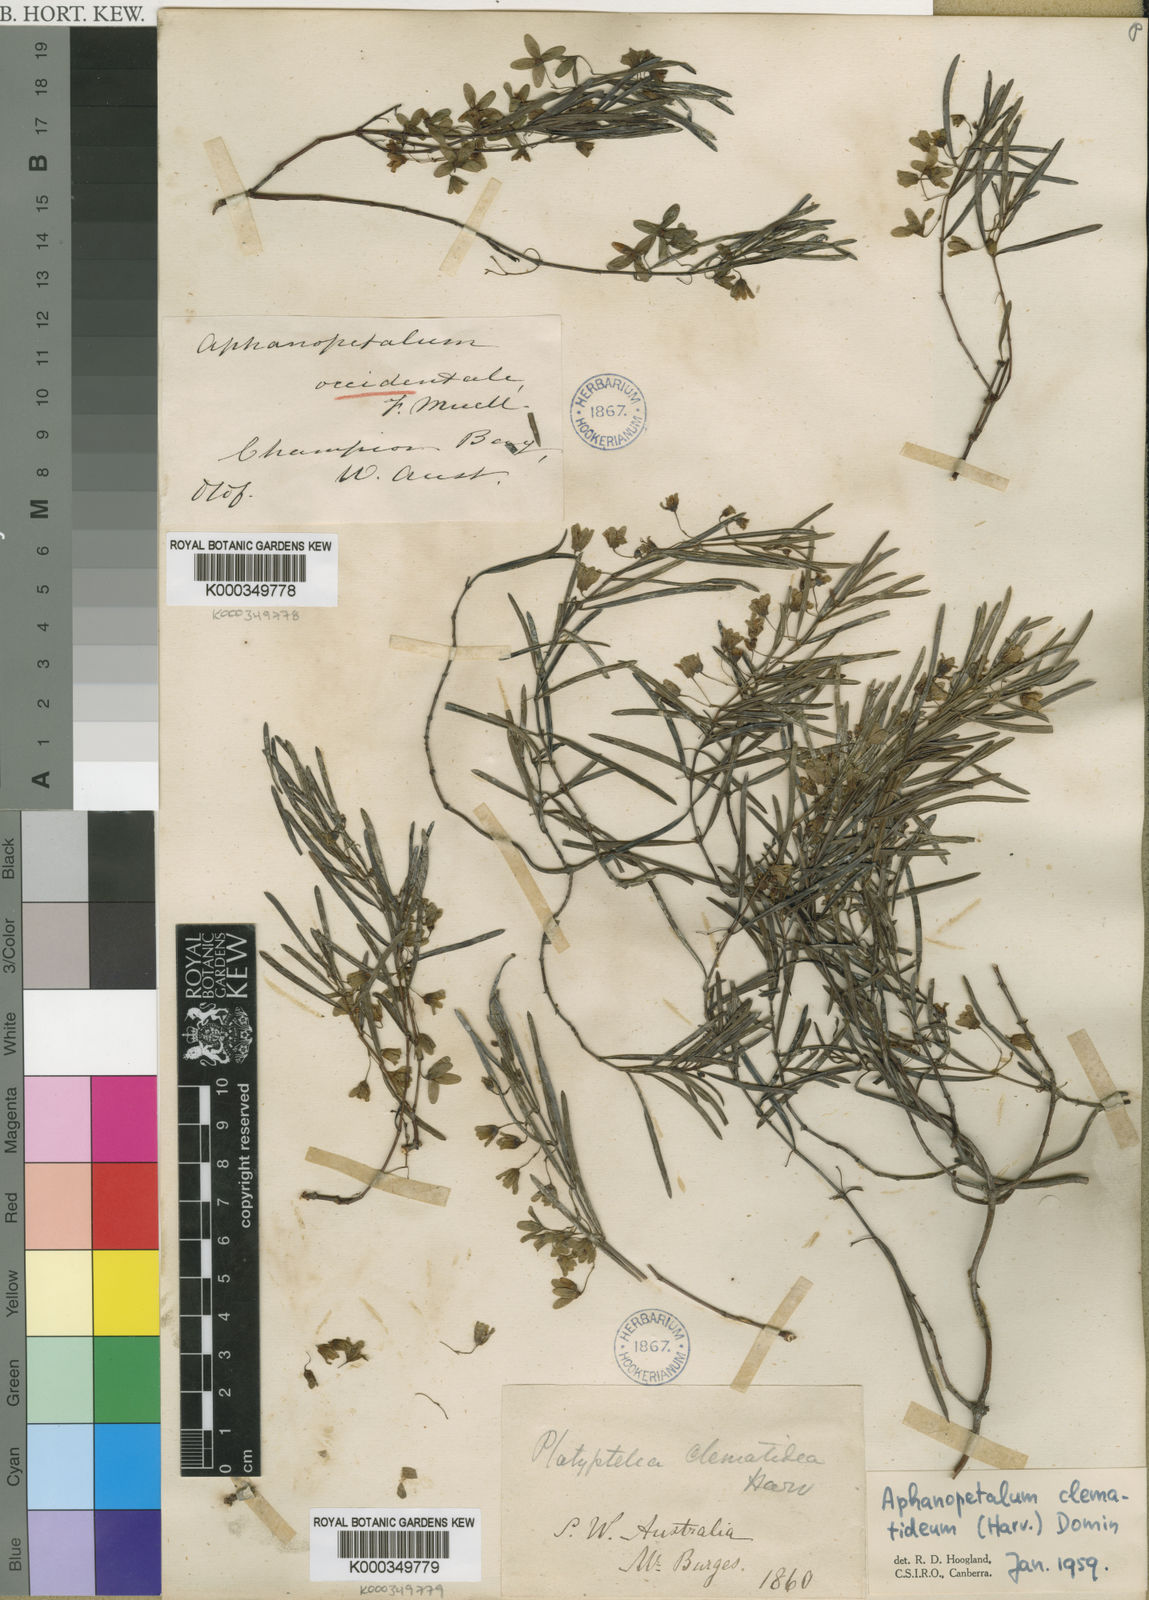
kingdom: Plantae
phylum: Tracheophyta
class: Magnoliopsida
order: Saxifragales
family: Aphanopetalaceae
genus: Aphanopetalum
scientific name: Aphanopetalum clematideum
